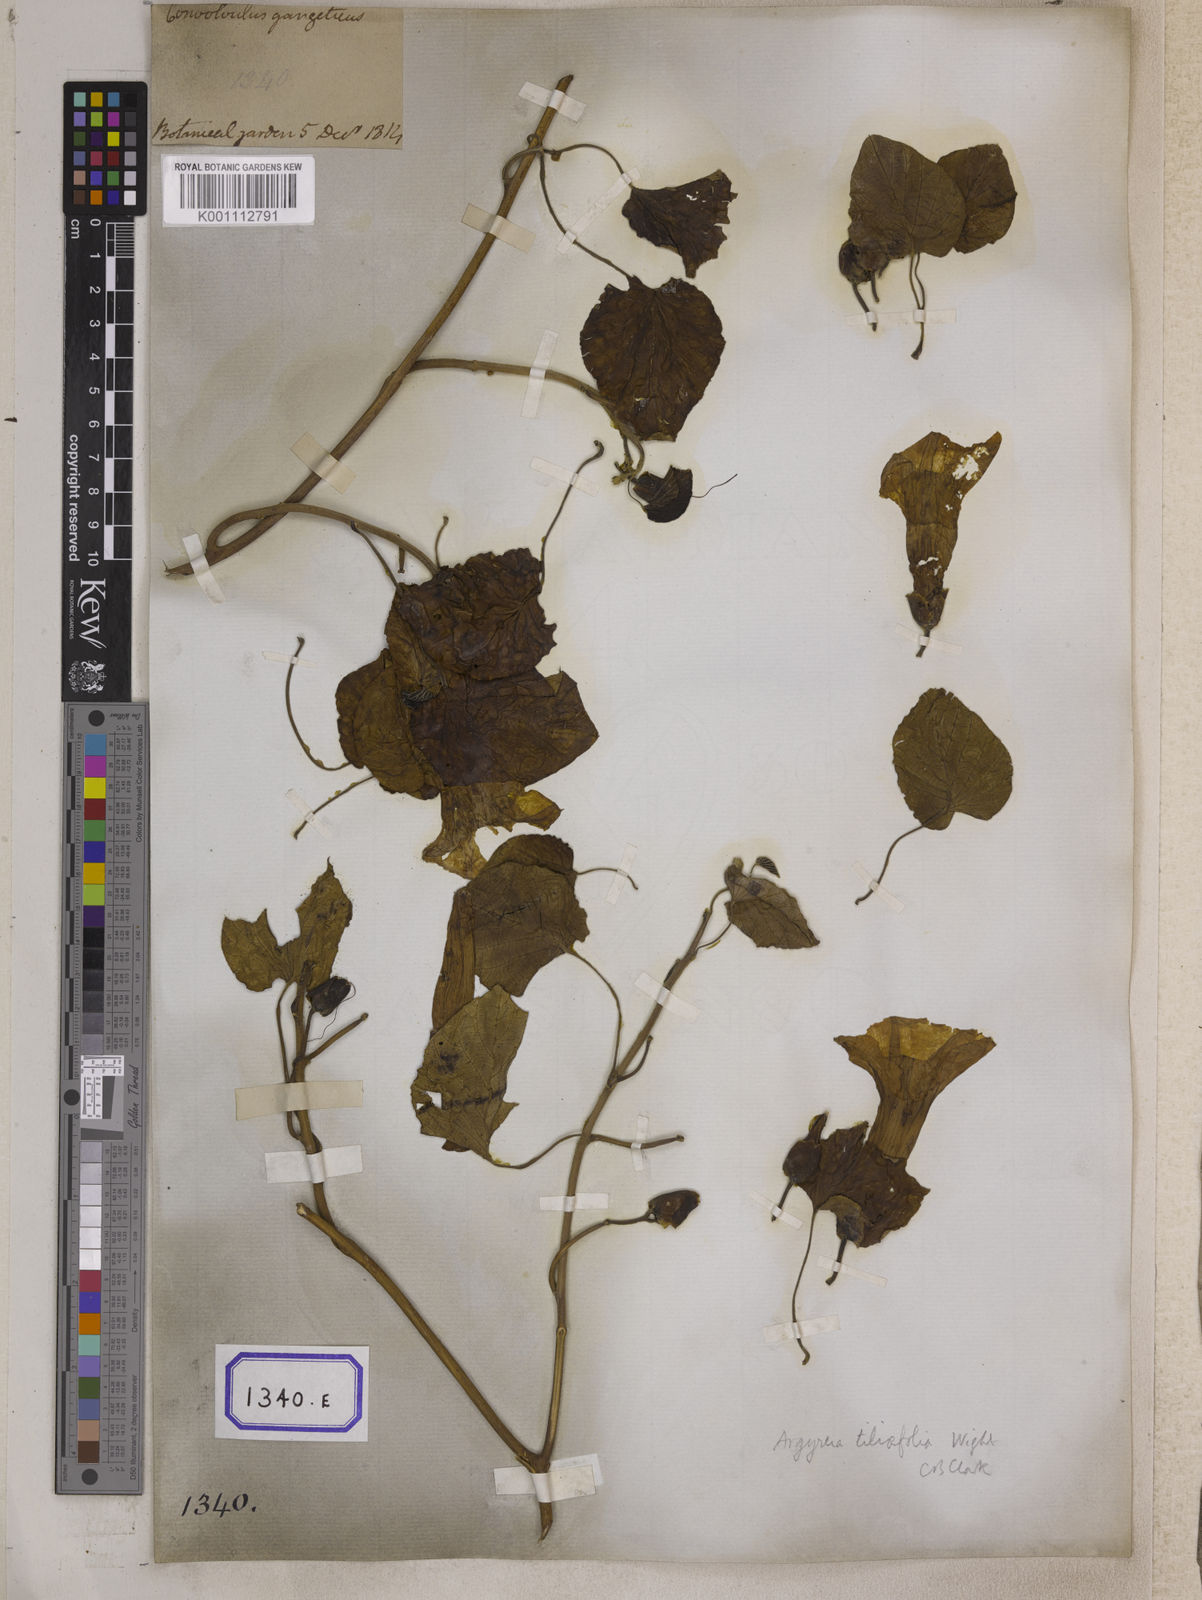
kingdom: Plantae
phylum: Tracheophyta
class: Magnoliopsida
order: Solanales
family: Convolvulaceae
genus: Stictocardia
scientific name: Stictocardia tiliifolia
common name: Spottedheart
